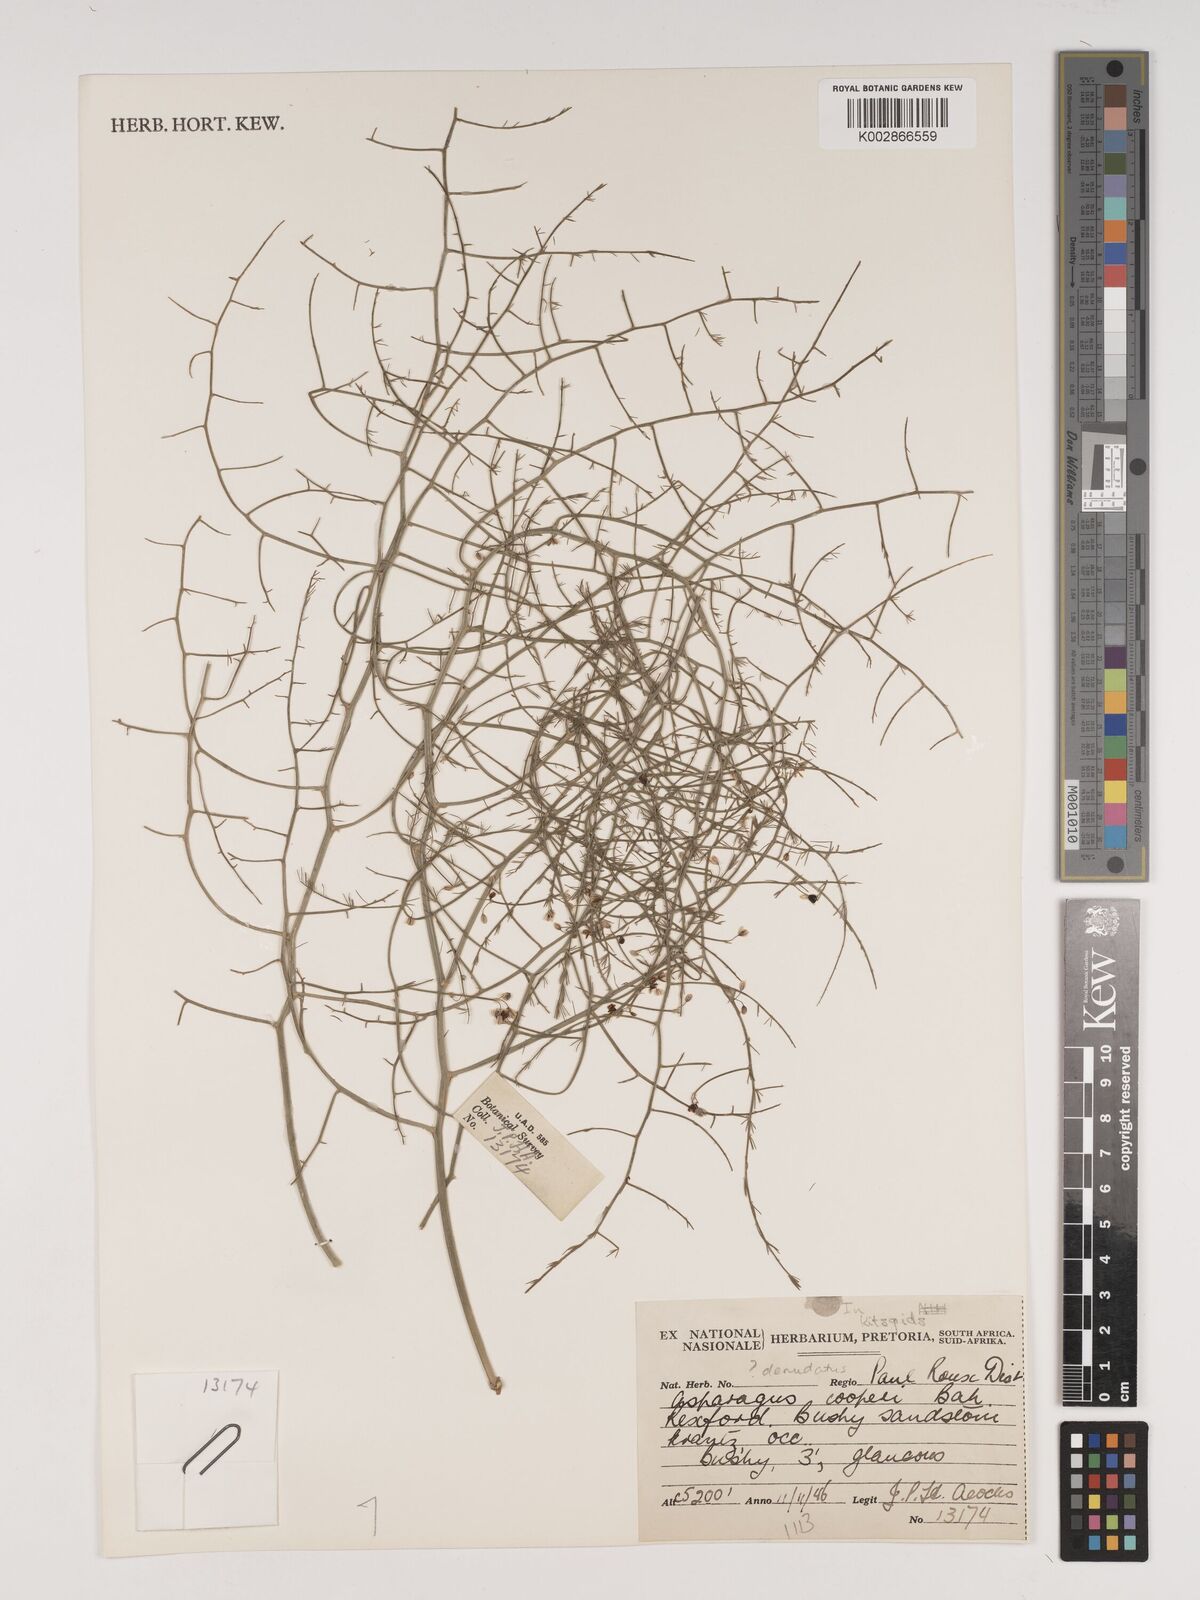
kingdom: Plantae
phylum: Tracheophyta
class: Liliopsida
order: Asparagales
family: Asparagaceae
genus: Asparagus
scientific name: Asparagus denudatus
